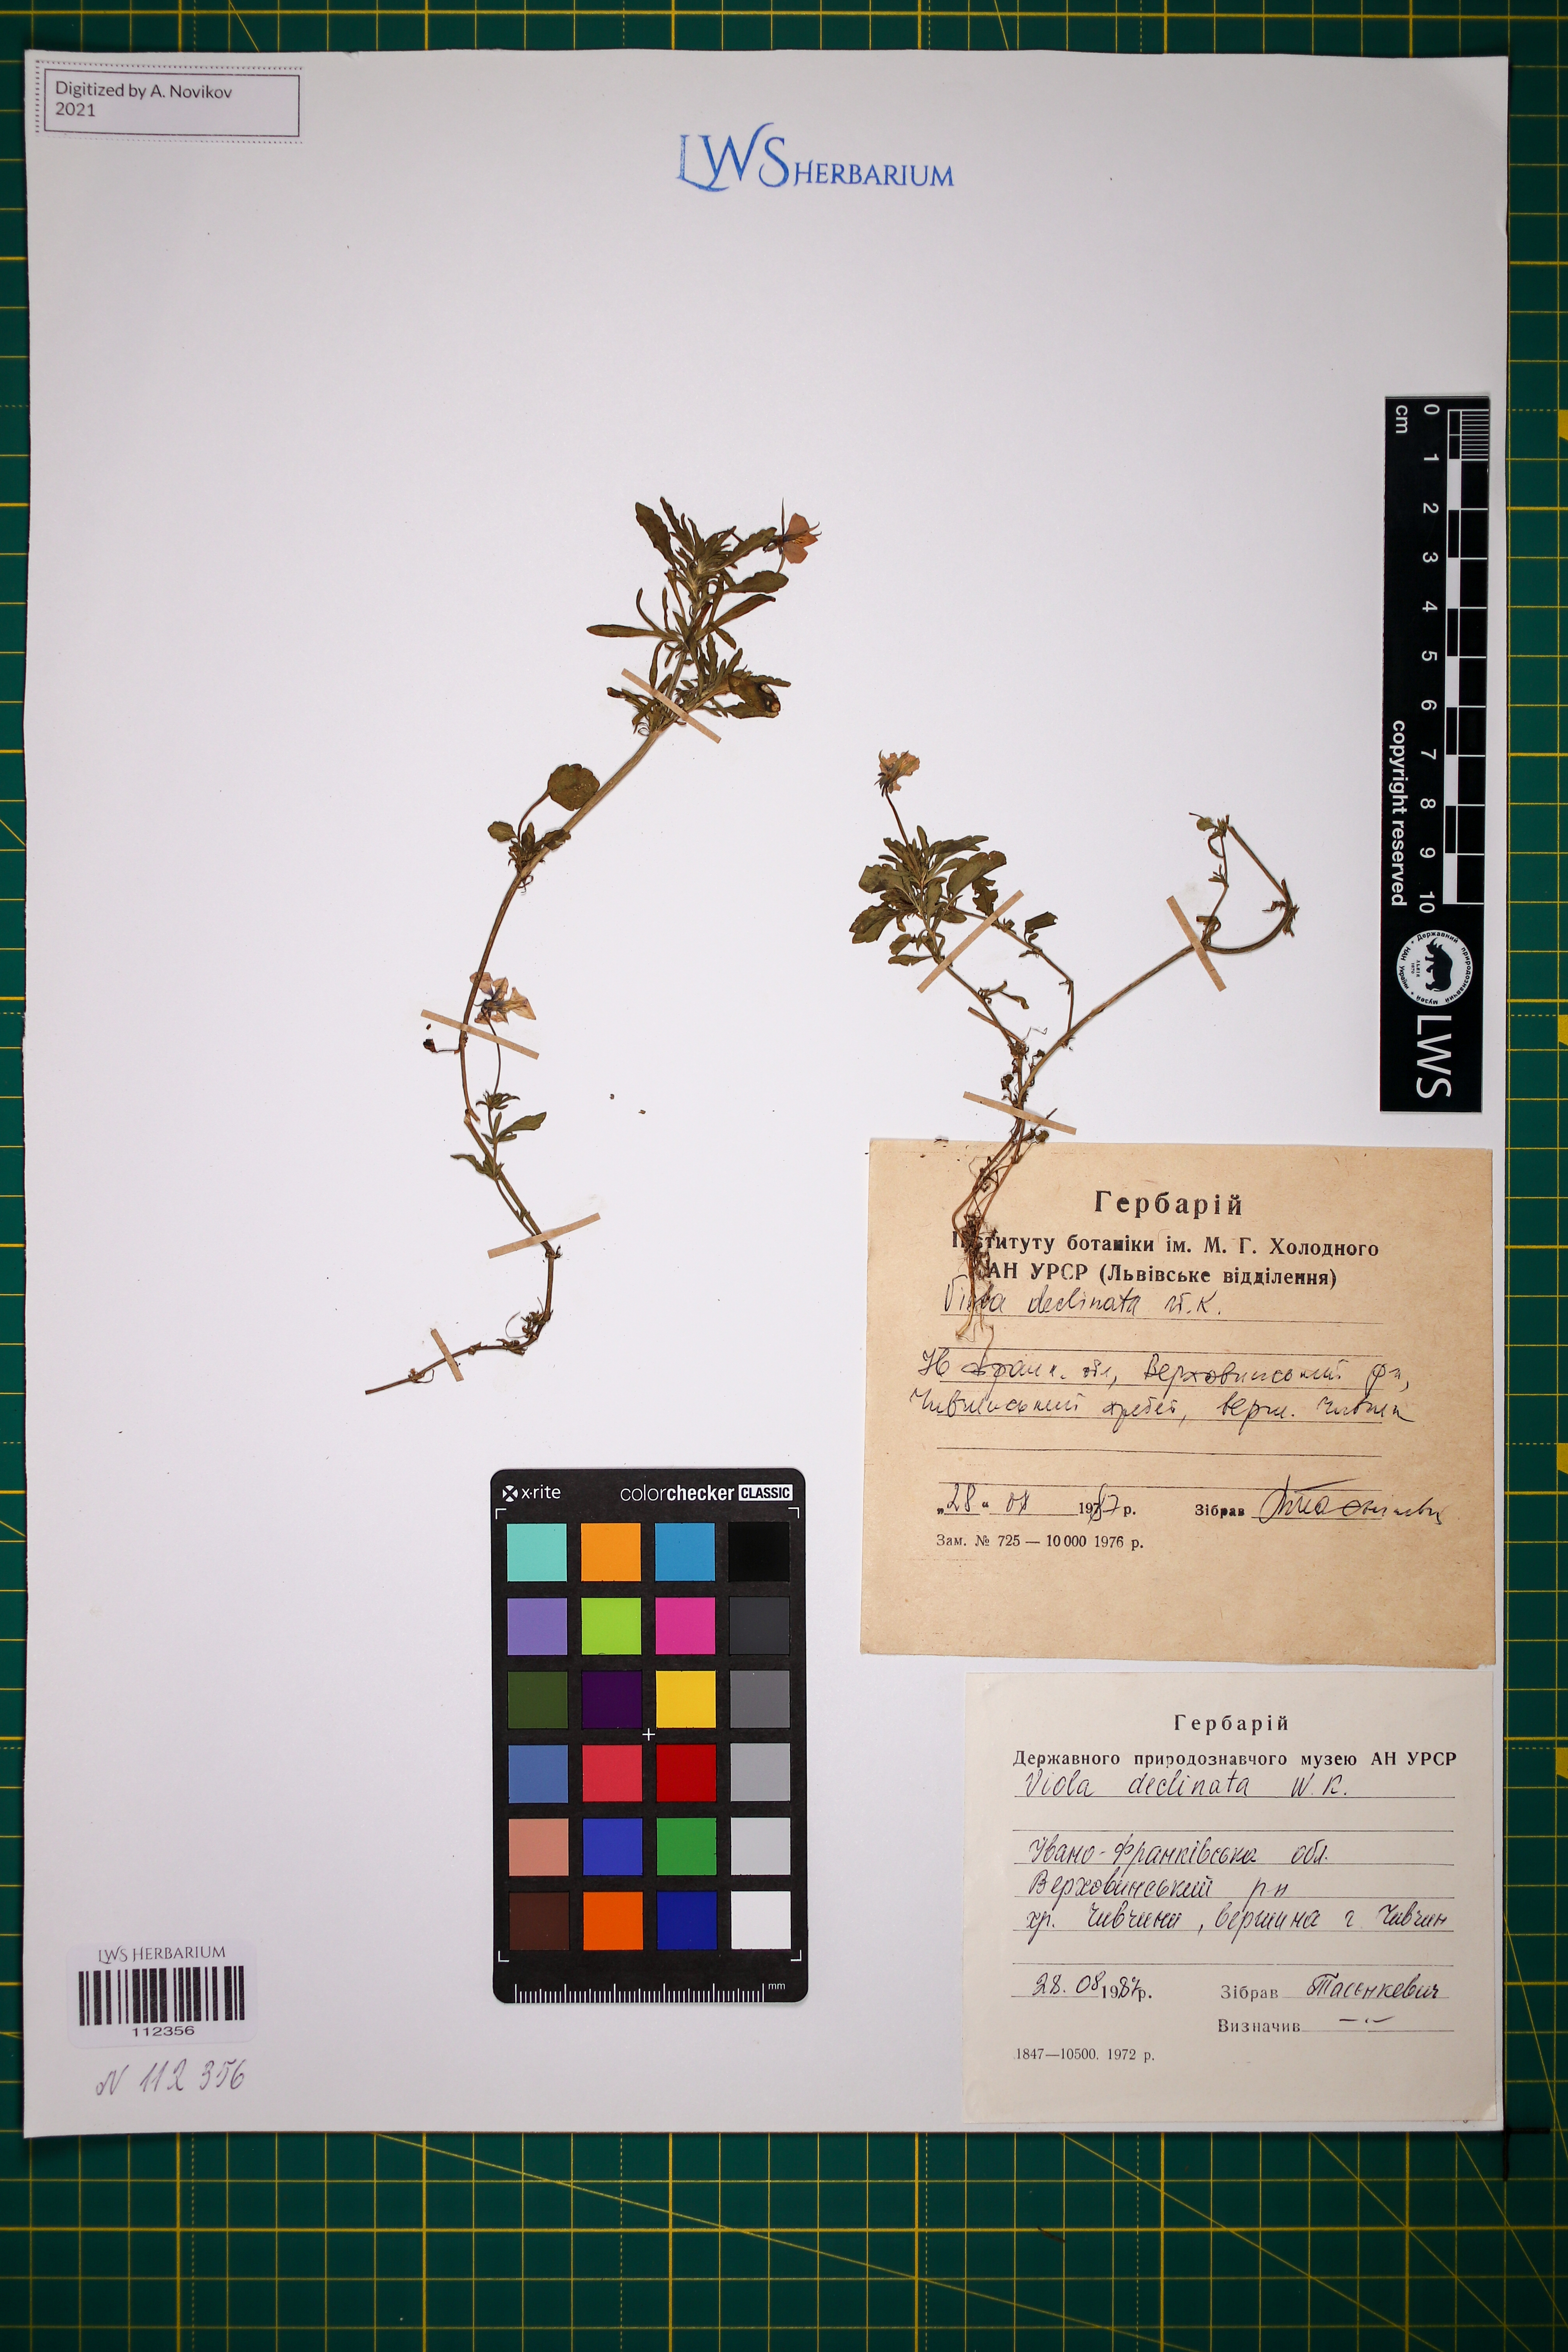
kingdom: Plantae
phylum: Tracheophyta
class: Magnoliopsida
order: Malpighiales
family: Violaceae
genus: Viola
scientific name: Viola declinata
